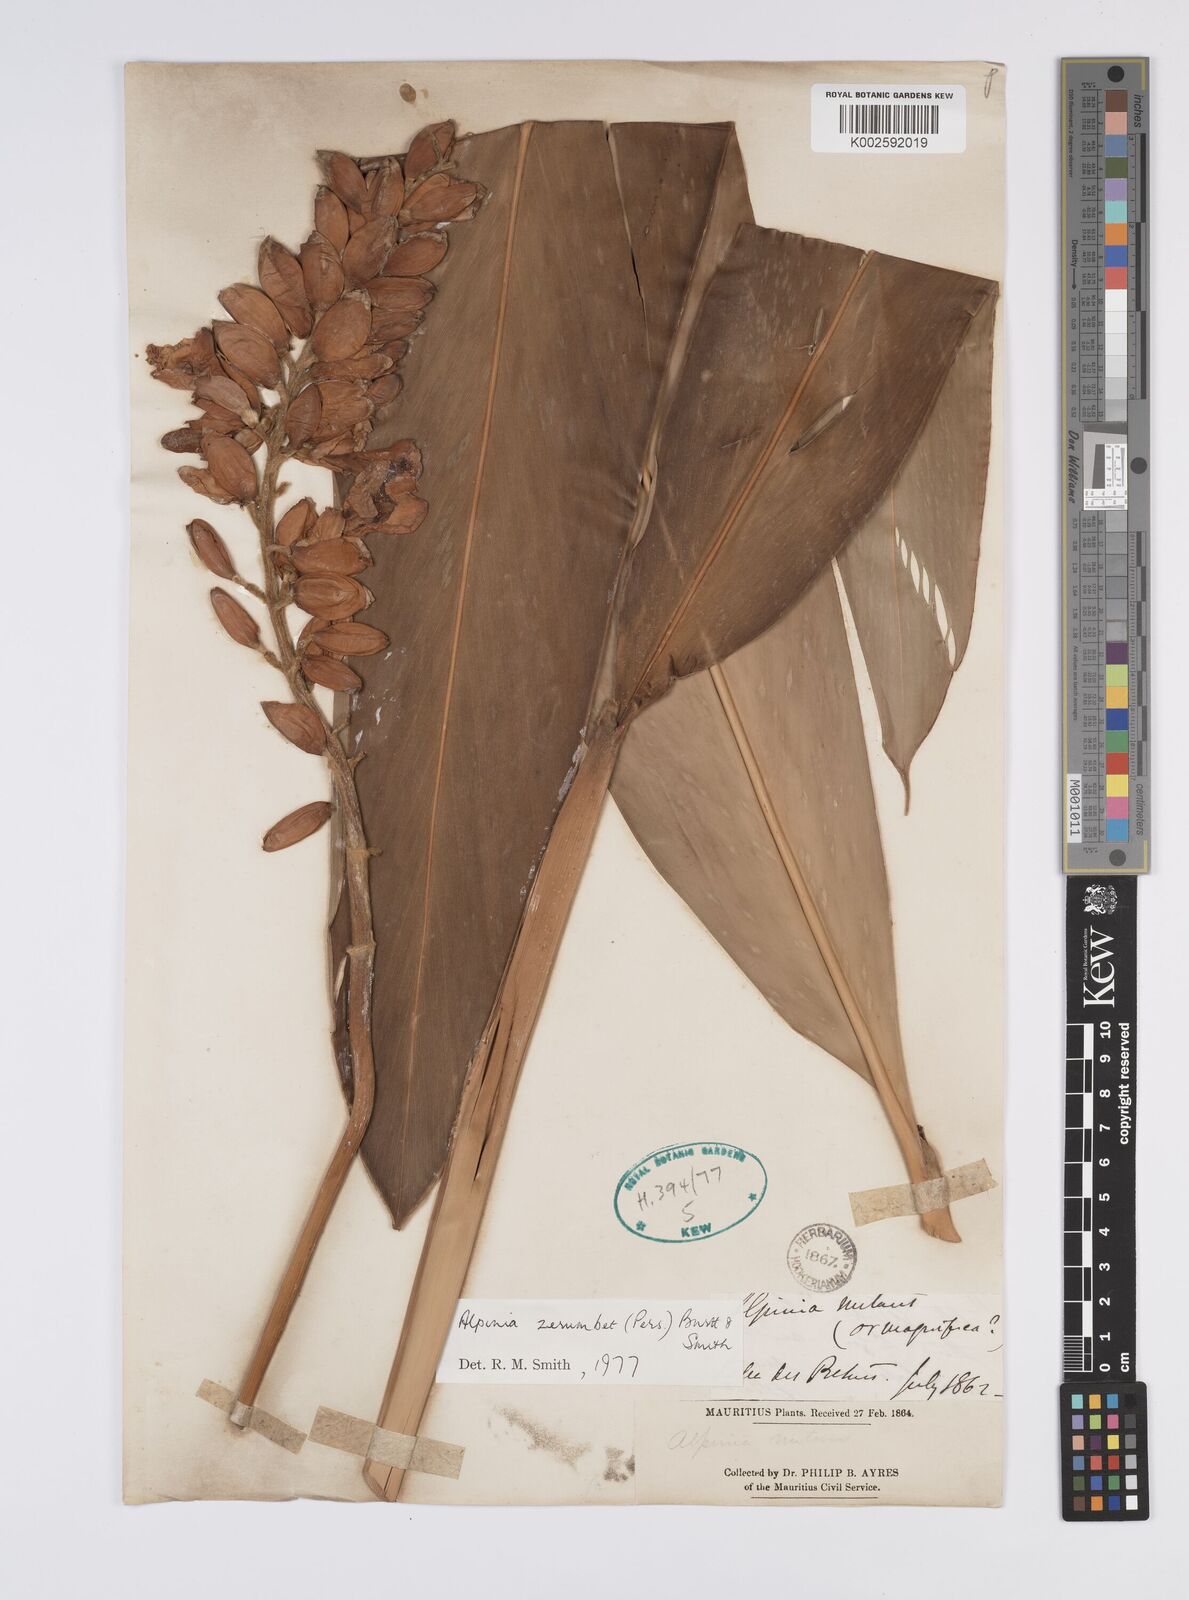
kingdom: Plantae
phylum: Tracheophyta
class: Liliopsida
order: Zingiberales
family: Zingiberaceae
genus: Alpinia
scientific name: Alpinia zerumbet
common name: Shellplant
